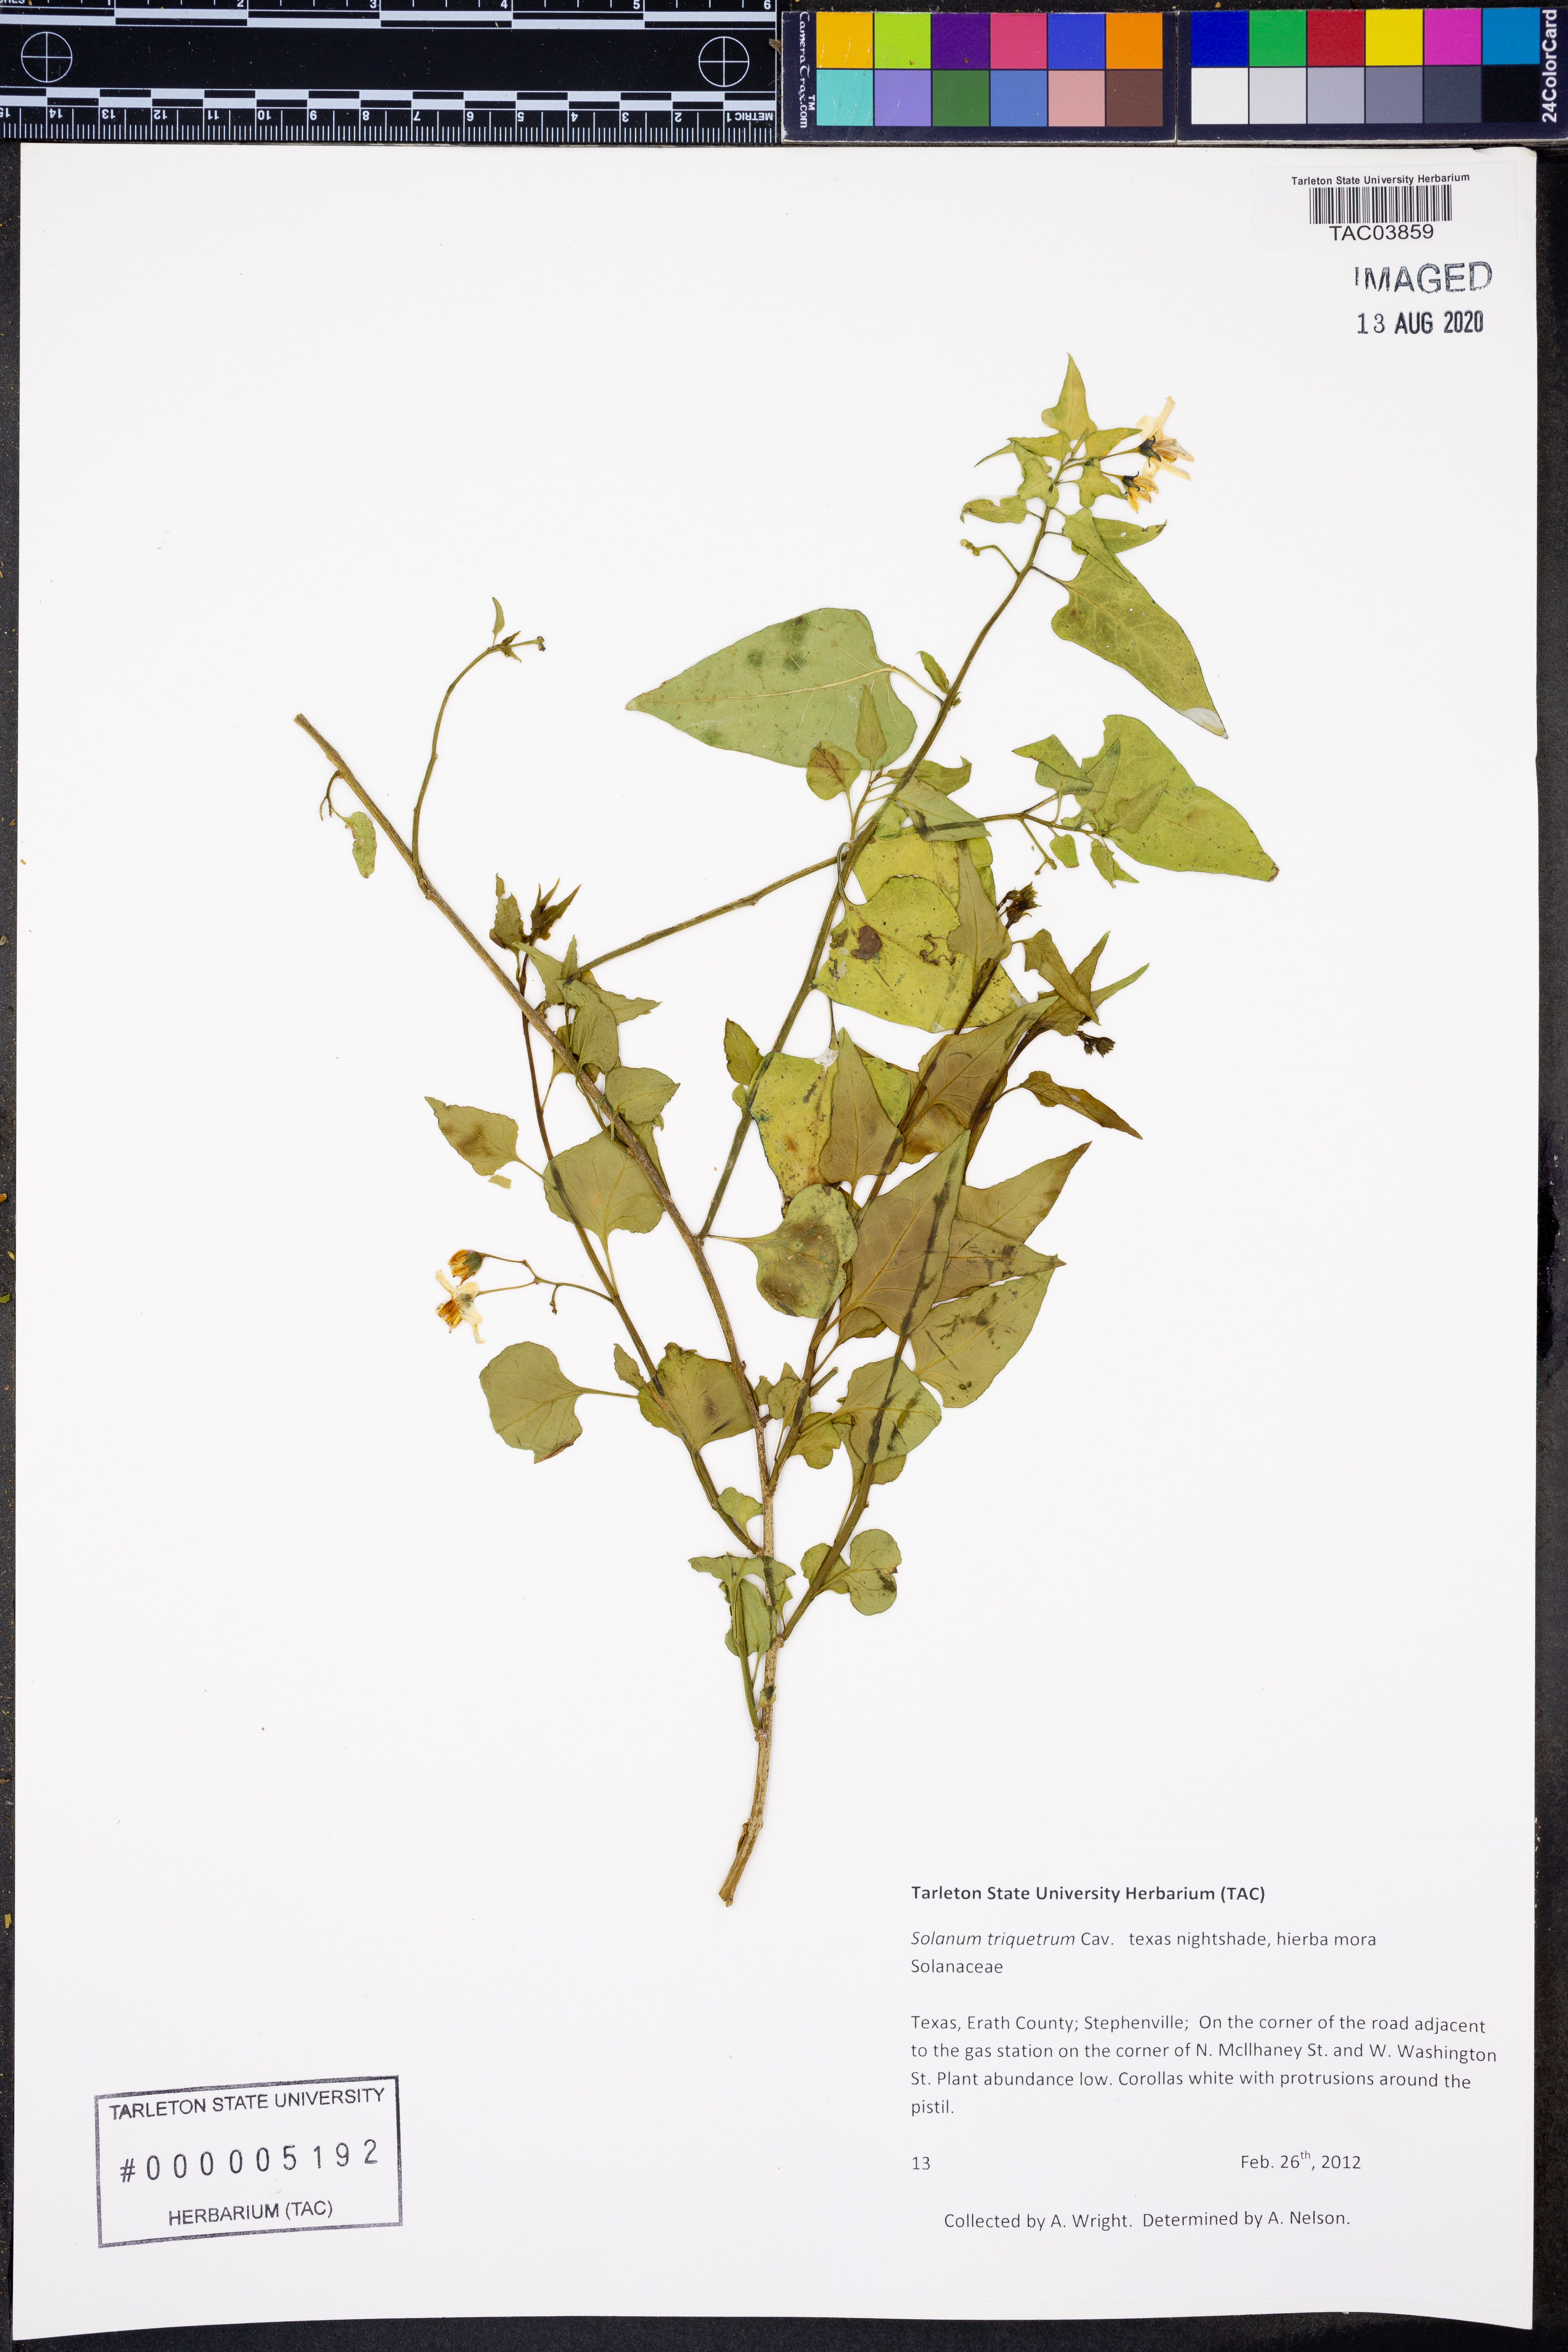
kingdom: Plantae
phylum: Tracheophyta
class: Magnoliopsida
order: Solanales
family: Solanaceae
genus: Solanum
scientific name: Solanum triquetrum
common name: Texas nightshade
